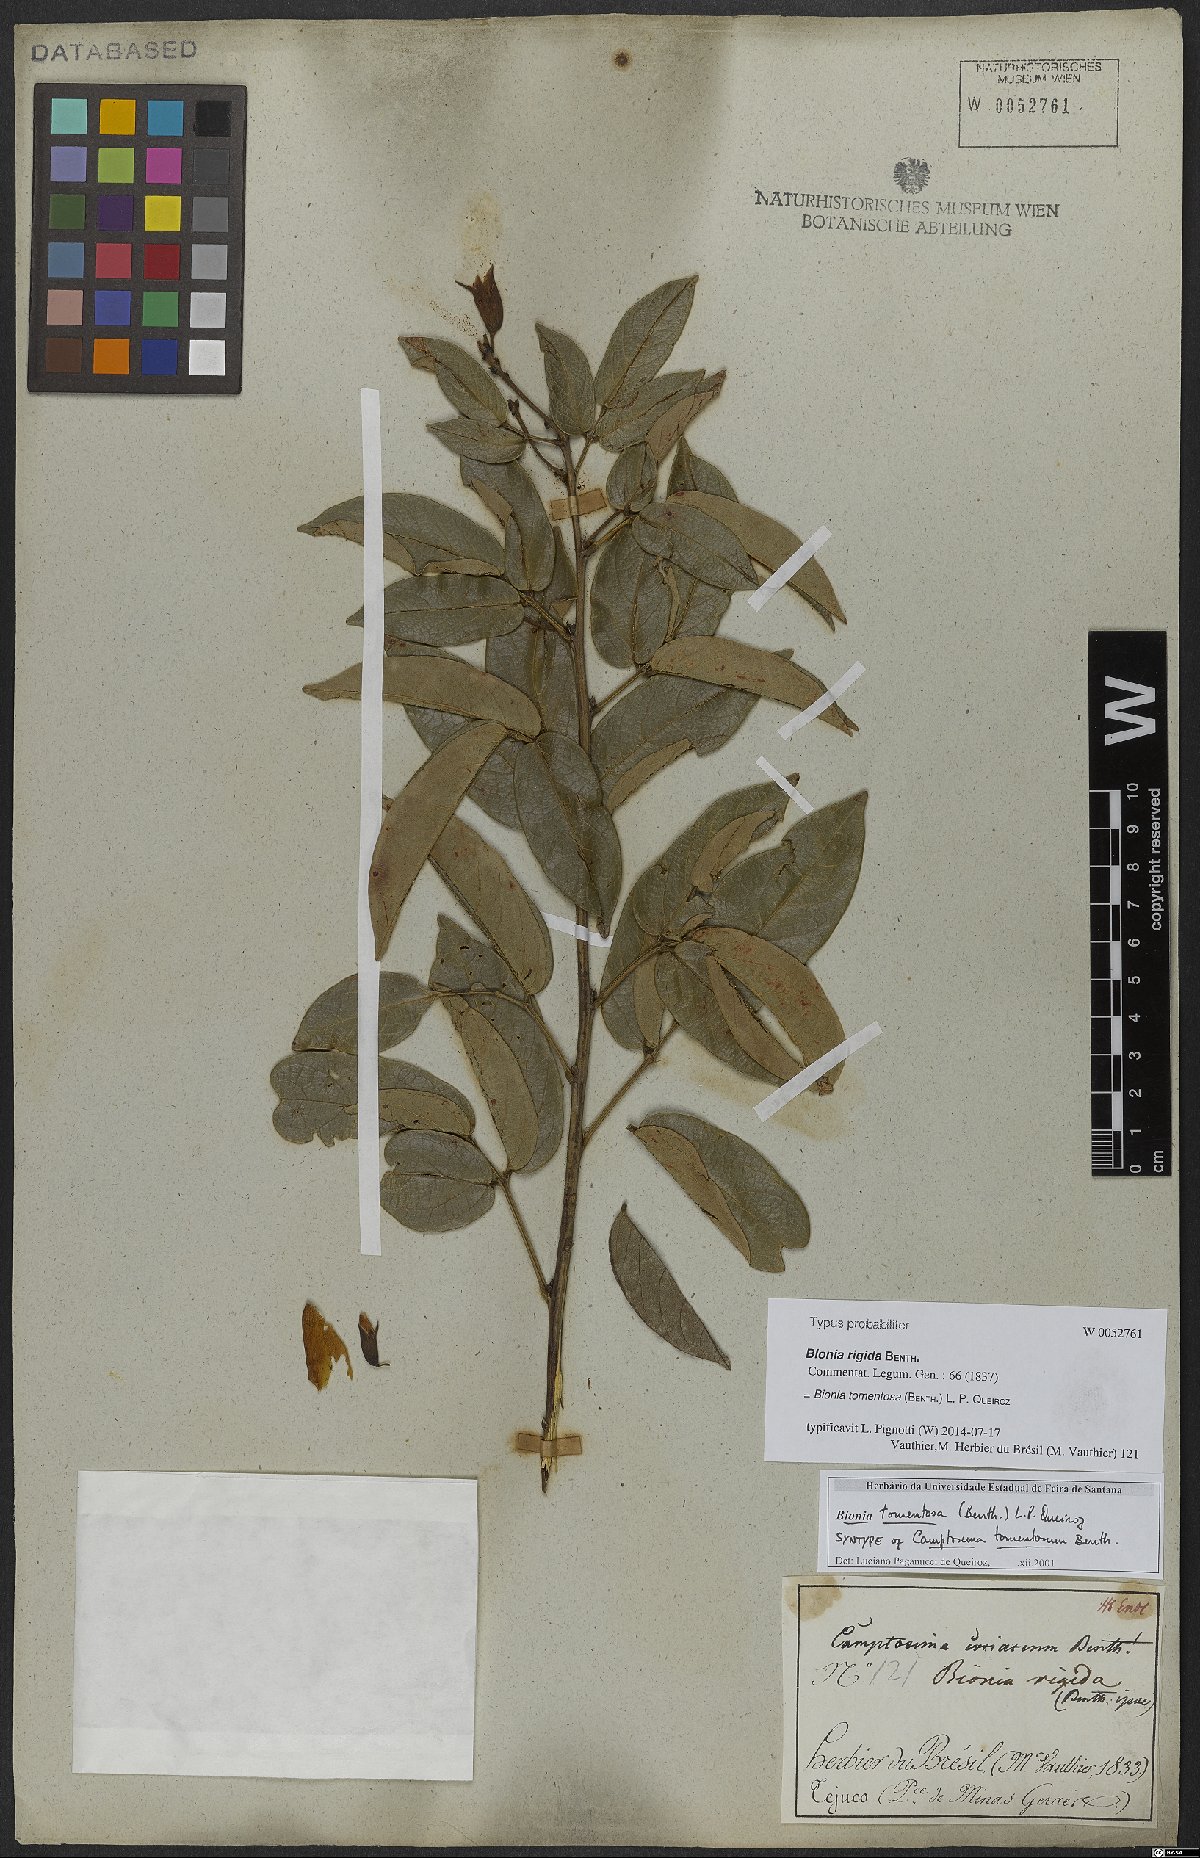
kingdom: Plantae
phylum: Tracheophyta
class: Magnoliopsida
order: Fabales
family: Fabaceae
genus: Camptosema
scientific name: Camptosema tomentosum
